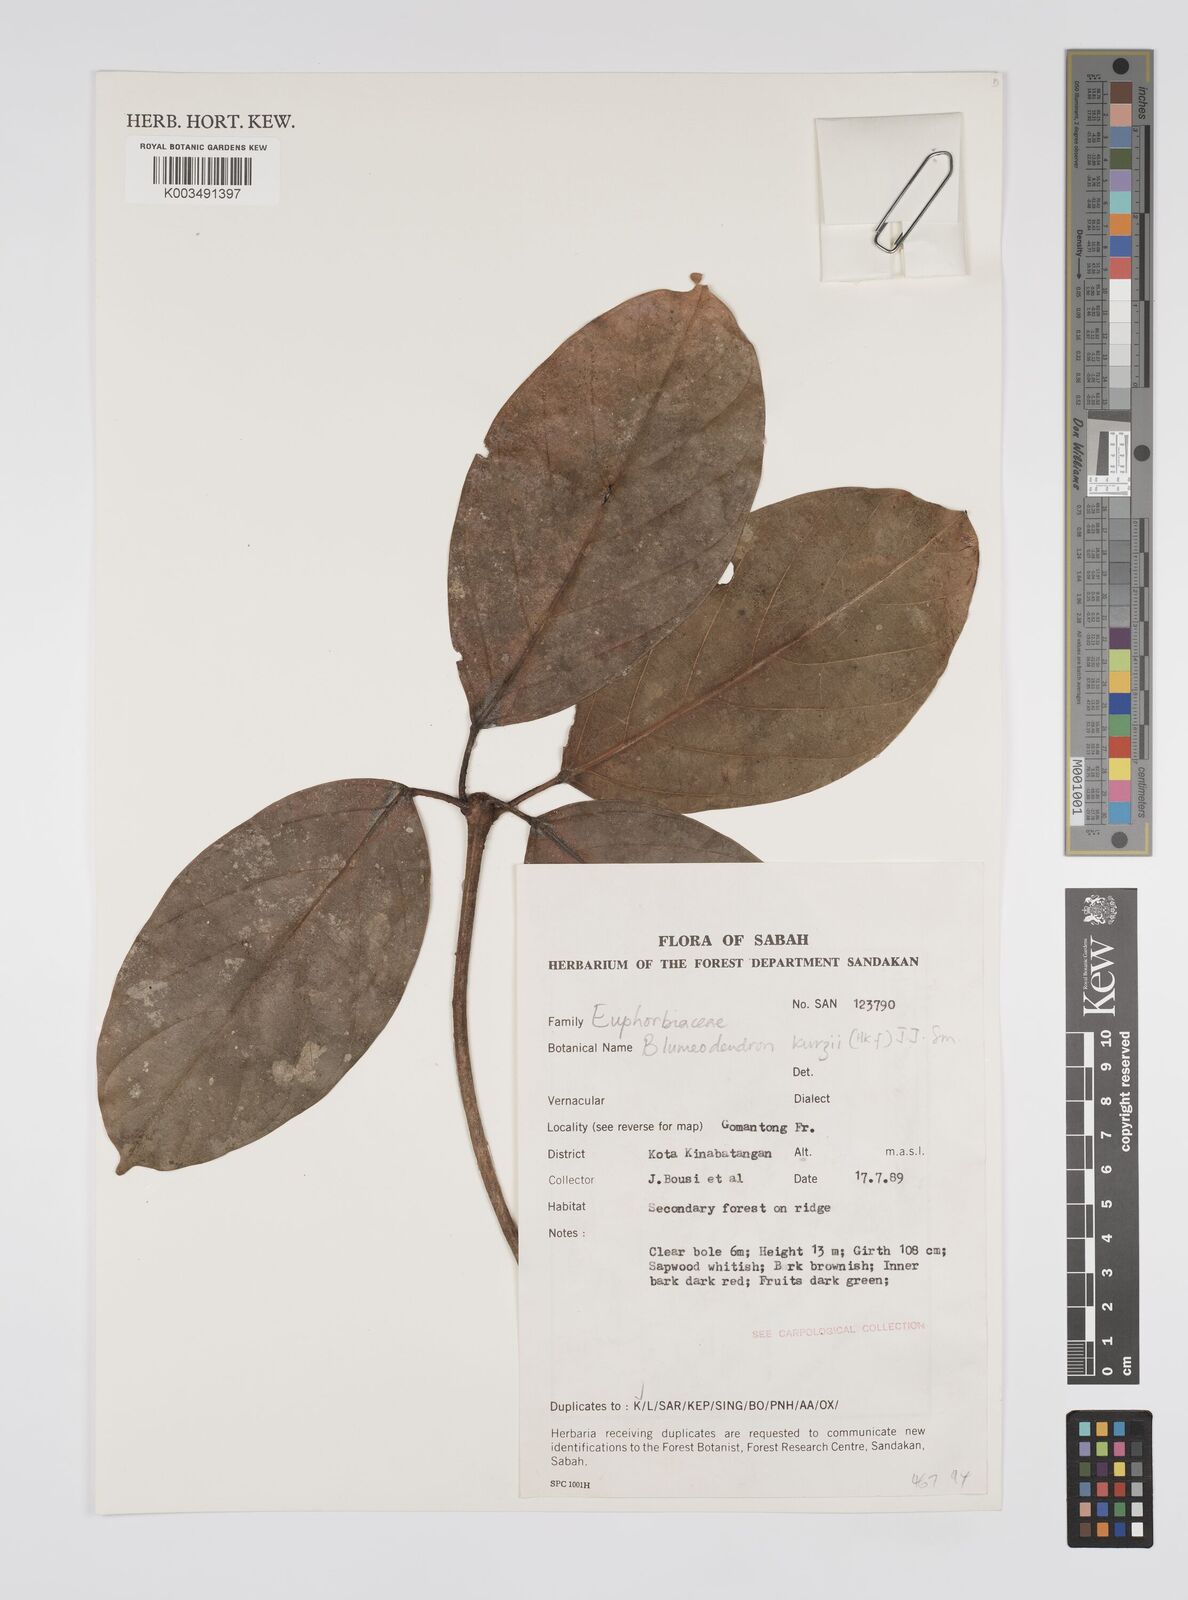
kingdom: Plantae
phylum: Tracheophyta
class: Magnoliopsida
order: Malpighiales
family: Euphorbiaceae
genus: Blumeodendron
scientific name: Blumeodendron kurzii
